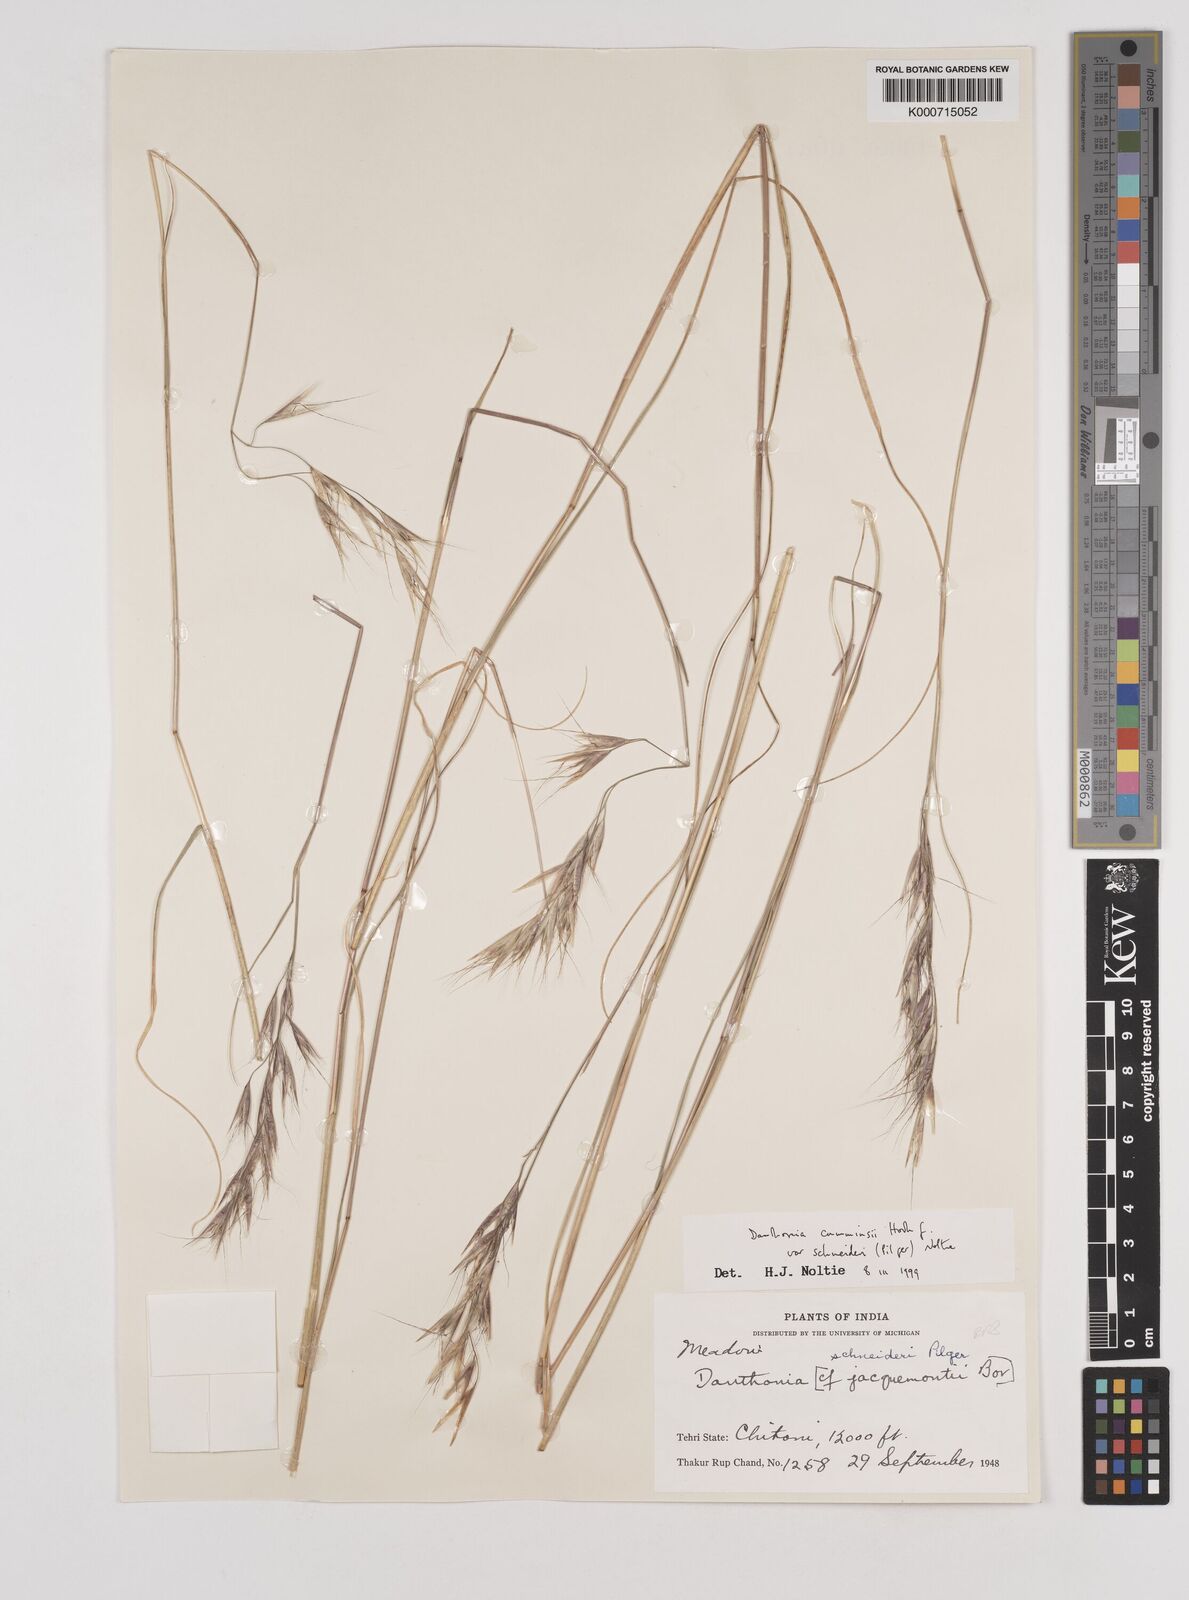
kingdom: Plantae
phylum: Tracheophyta
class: Liliopsida
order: Poales
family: Poaceae
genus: Rytidosperma
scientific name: Rytidosperma
